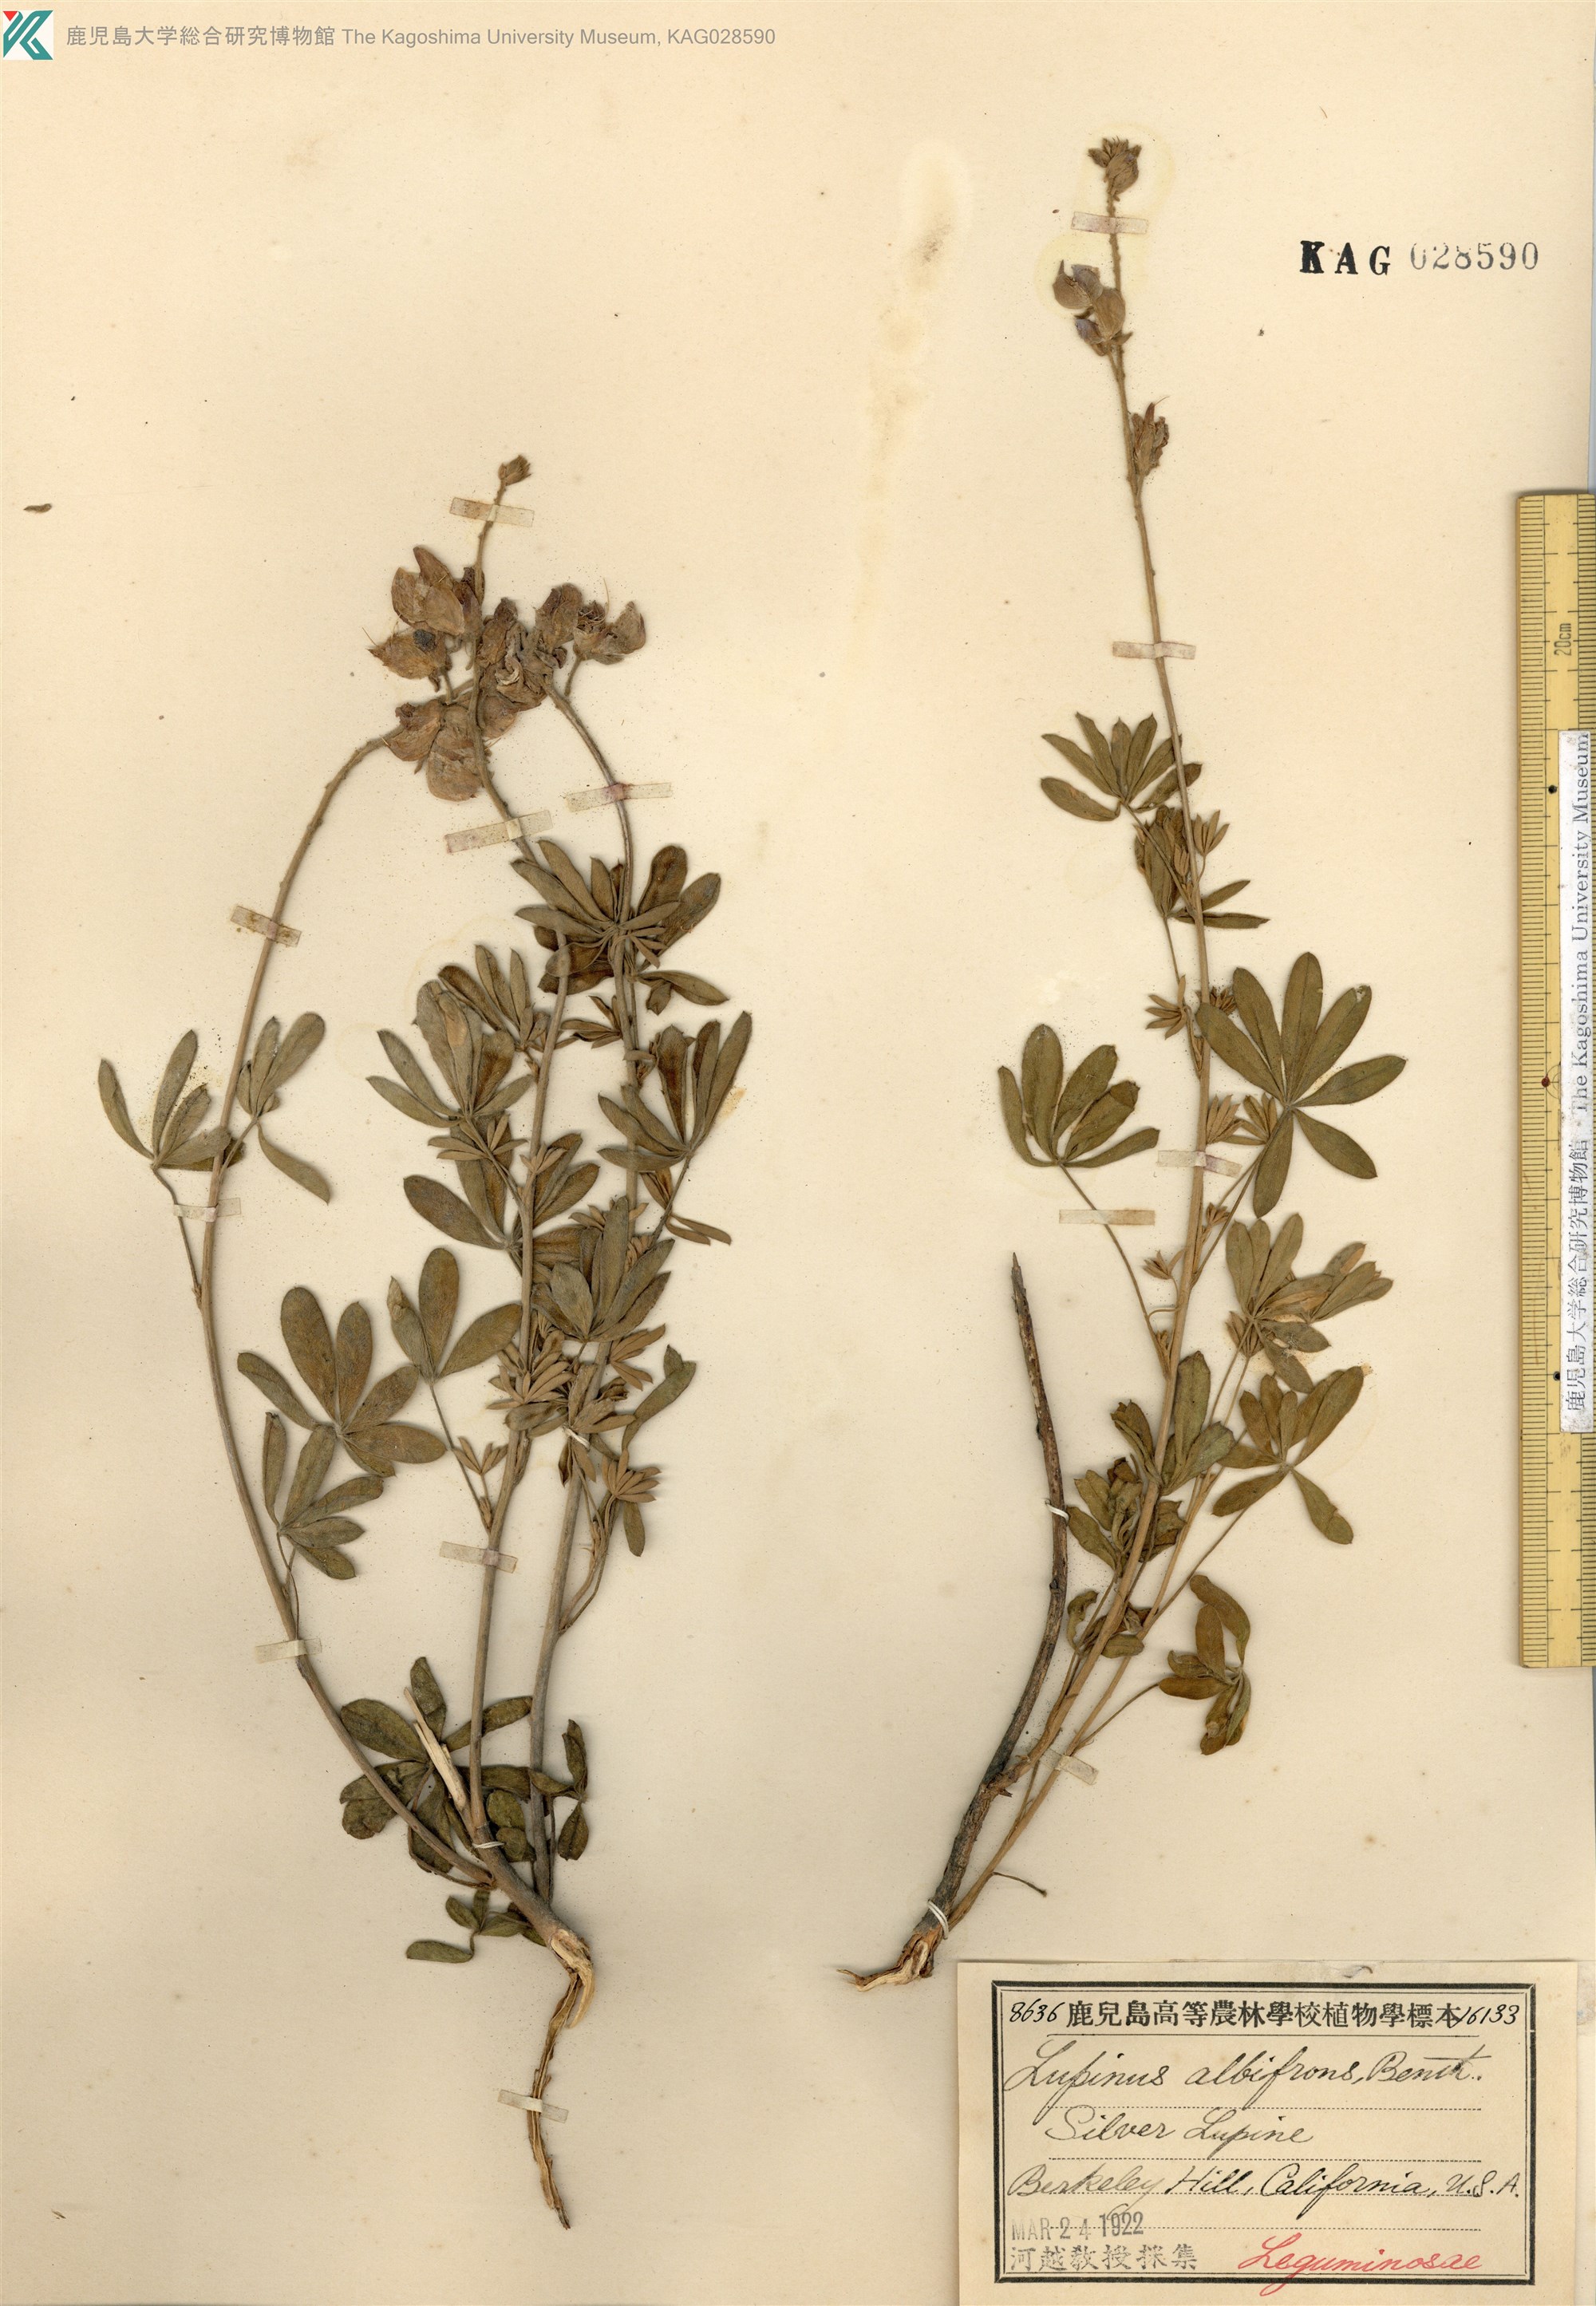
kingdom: Plantae
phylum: Tracheophyta
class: Magnoliopsida
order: Fabales
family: Fabaceae
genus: Lupinus
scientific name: Lupinus albifrons
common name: Foothill lupine
